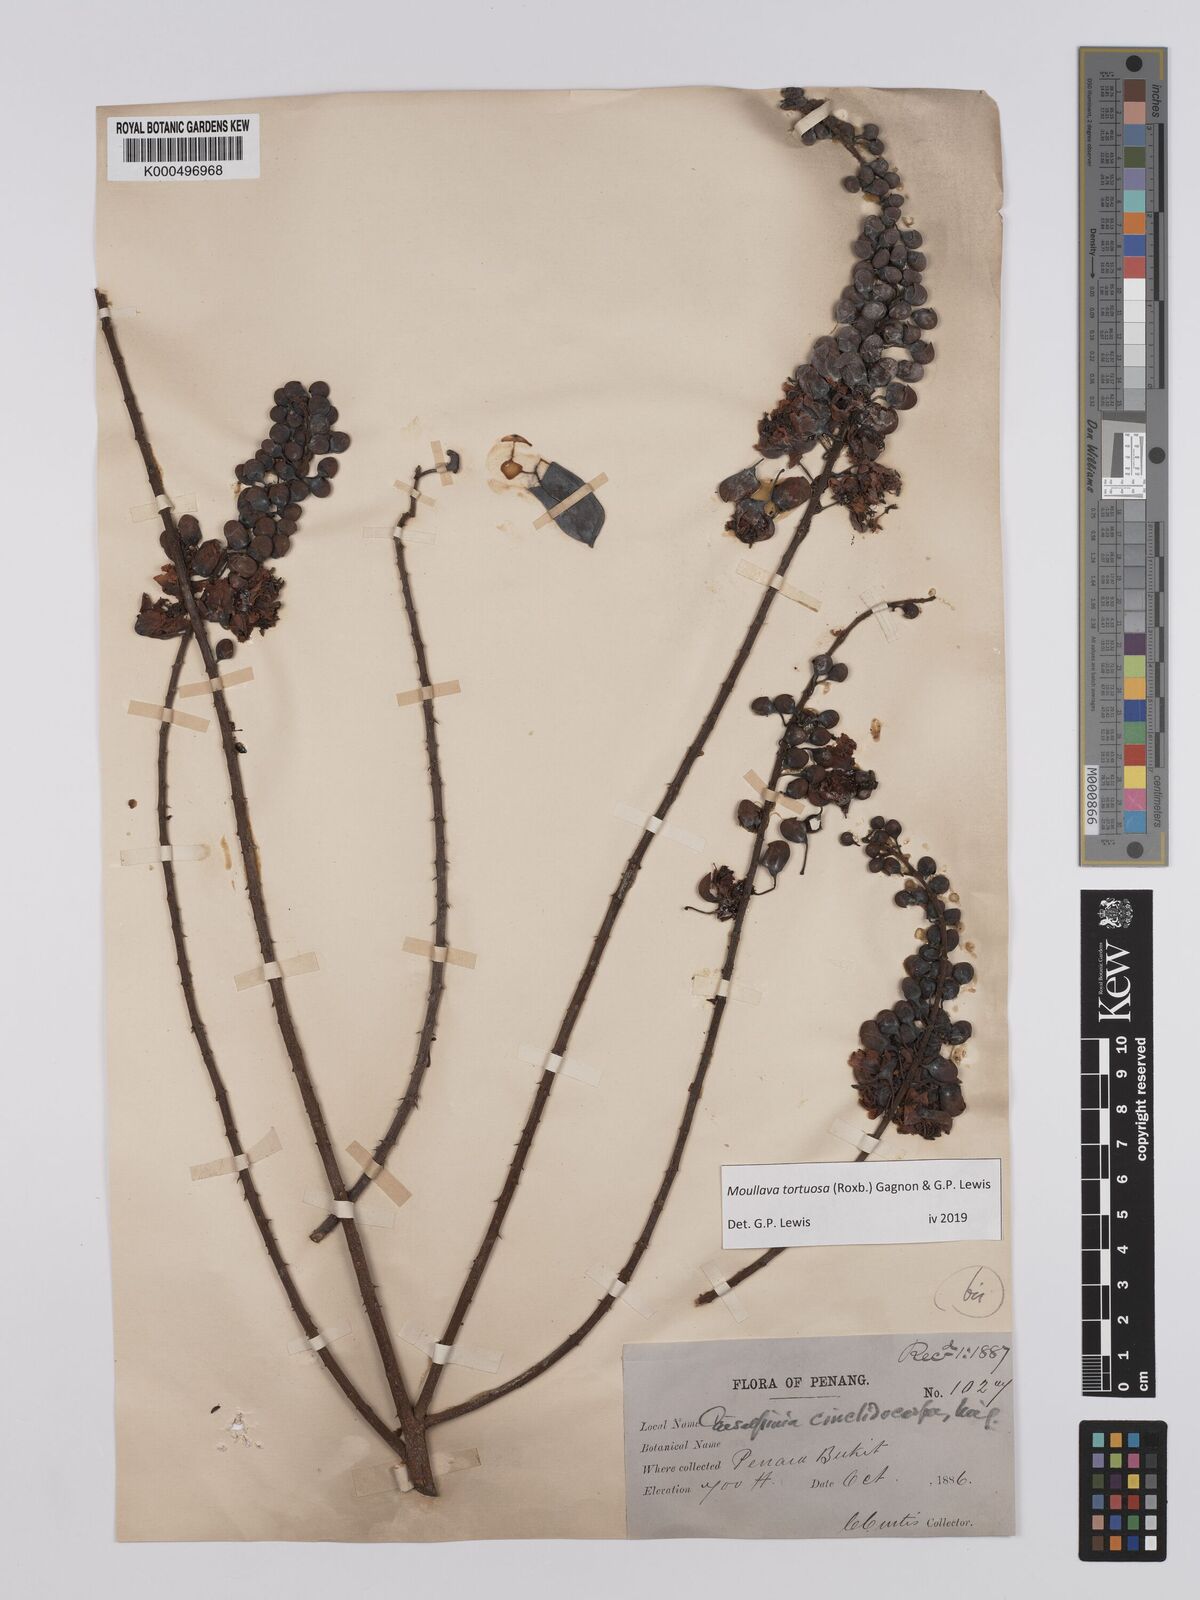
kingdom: Plantae
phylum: Tracheophyta
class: Magnoliopsida
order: Fabales
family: Fabaceae
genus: Moullava
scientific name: Moullava tortuosa
